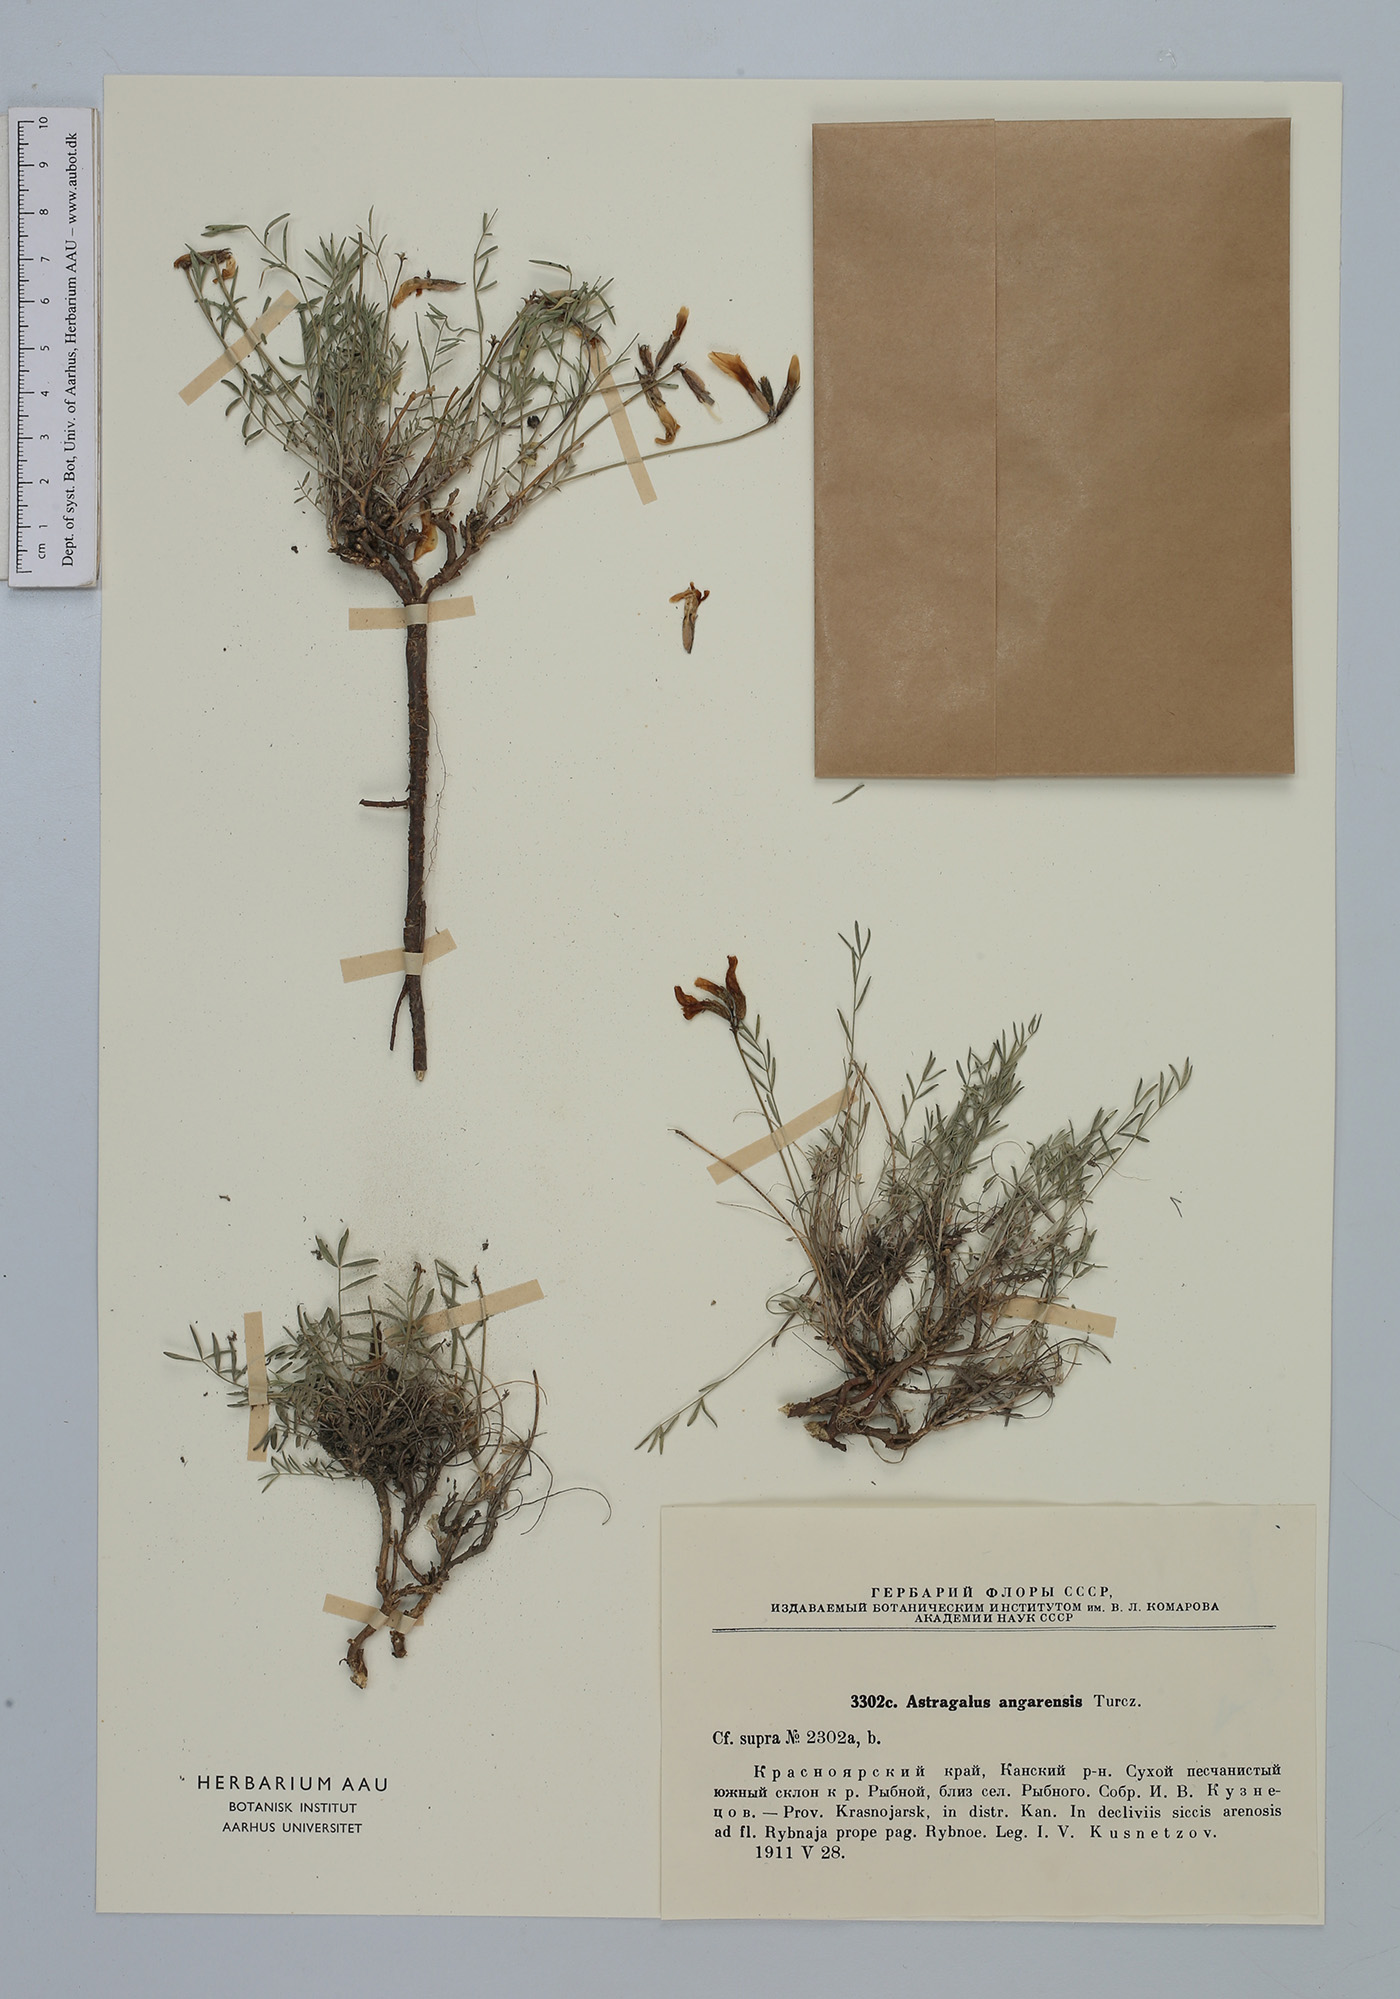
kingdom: Plantae
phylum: Tracheophyta
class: Magnoliopsida
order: Fabales
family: Fabaceae
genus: Astragalus
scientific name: Astragalus angarensis
